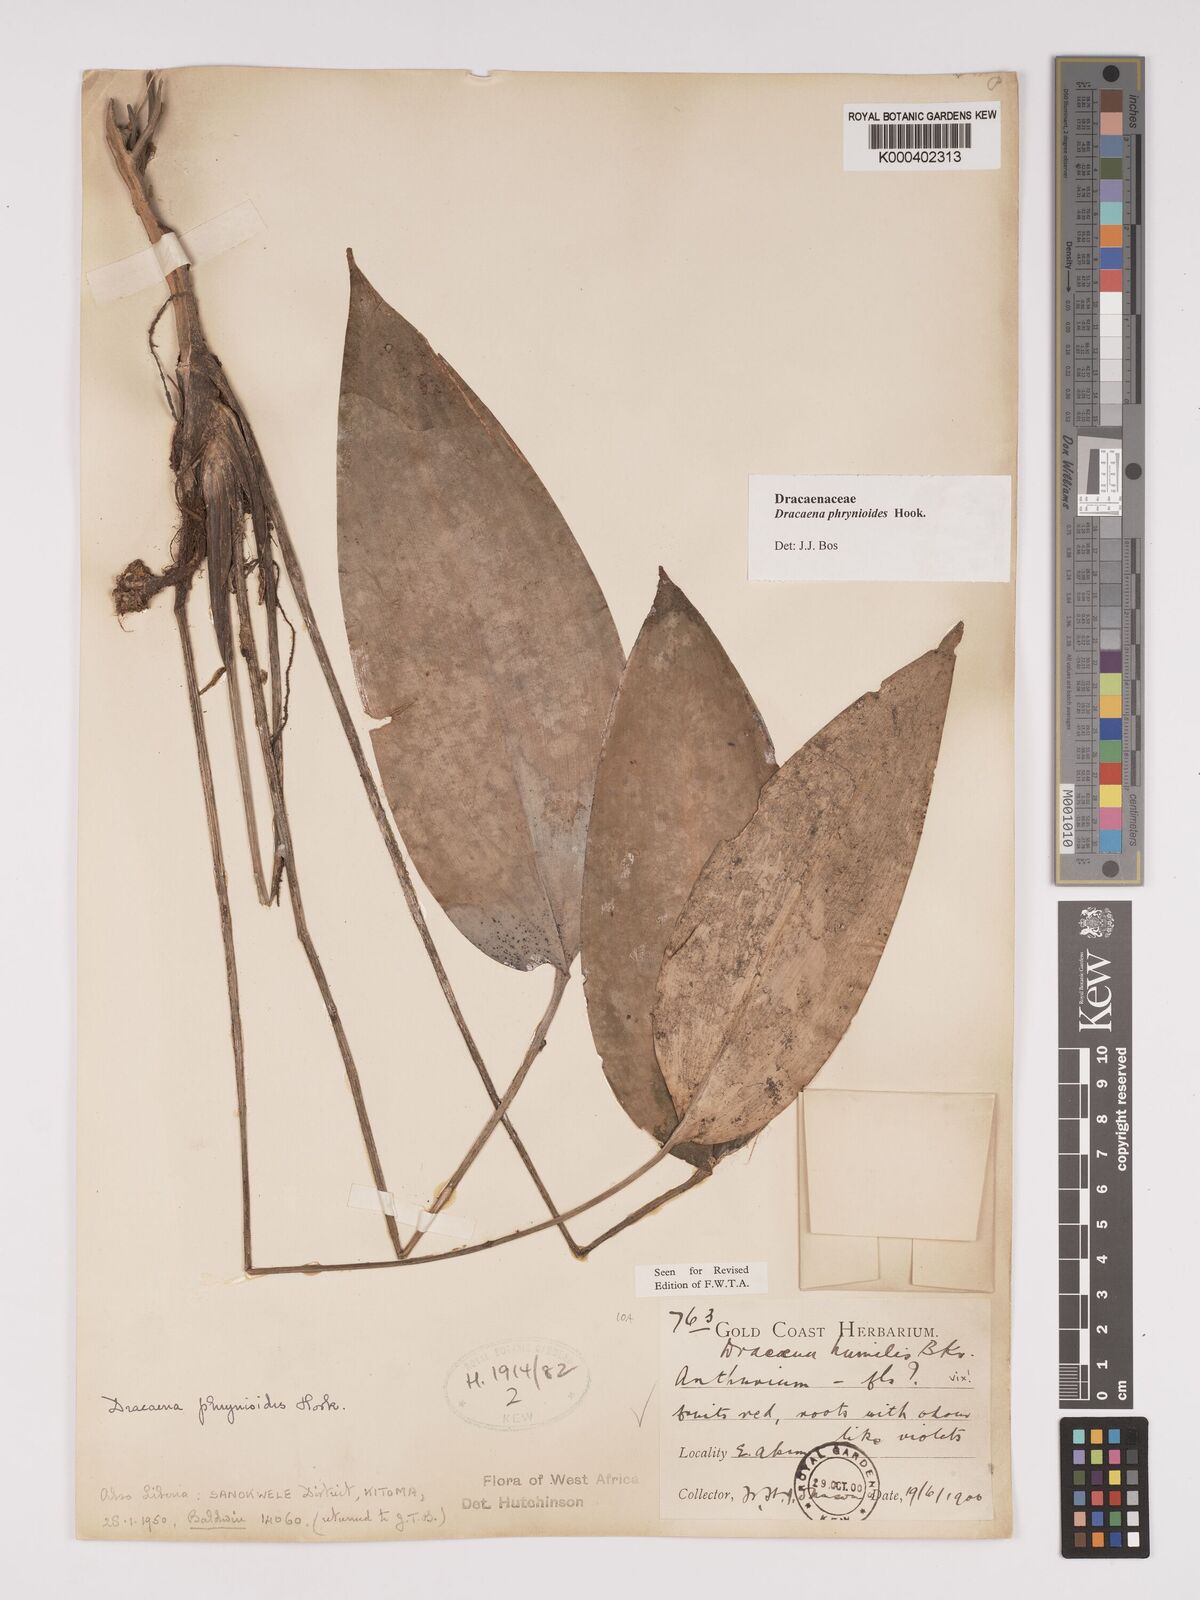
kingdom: Plantae
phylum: Tracheophyta
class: Liliopsida
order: Asparagales
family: Asparagaceae
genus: Dracaena
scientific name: Dracaena phrynioides
